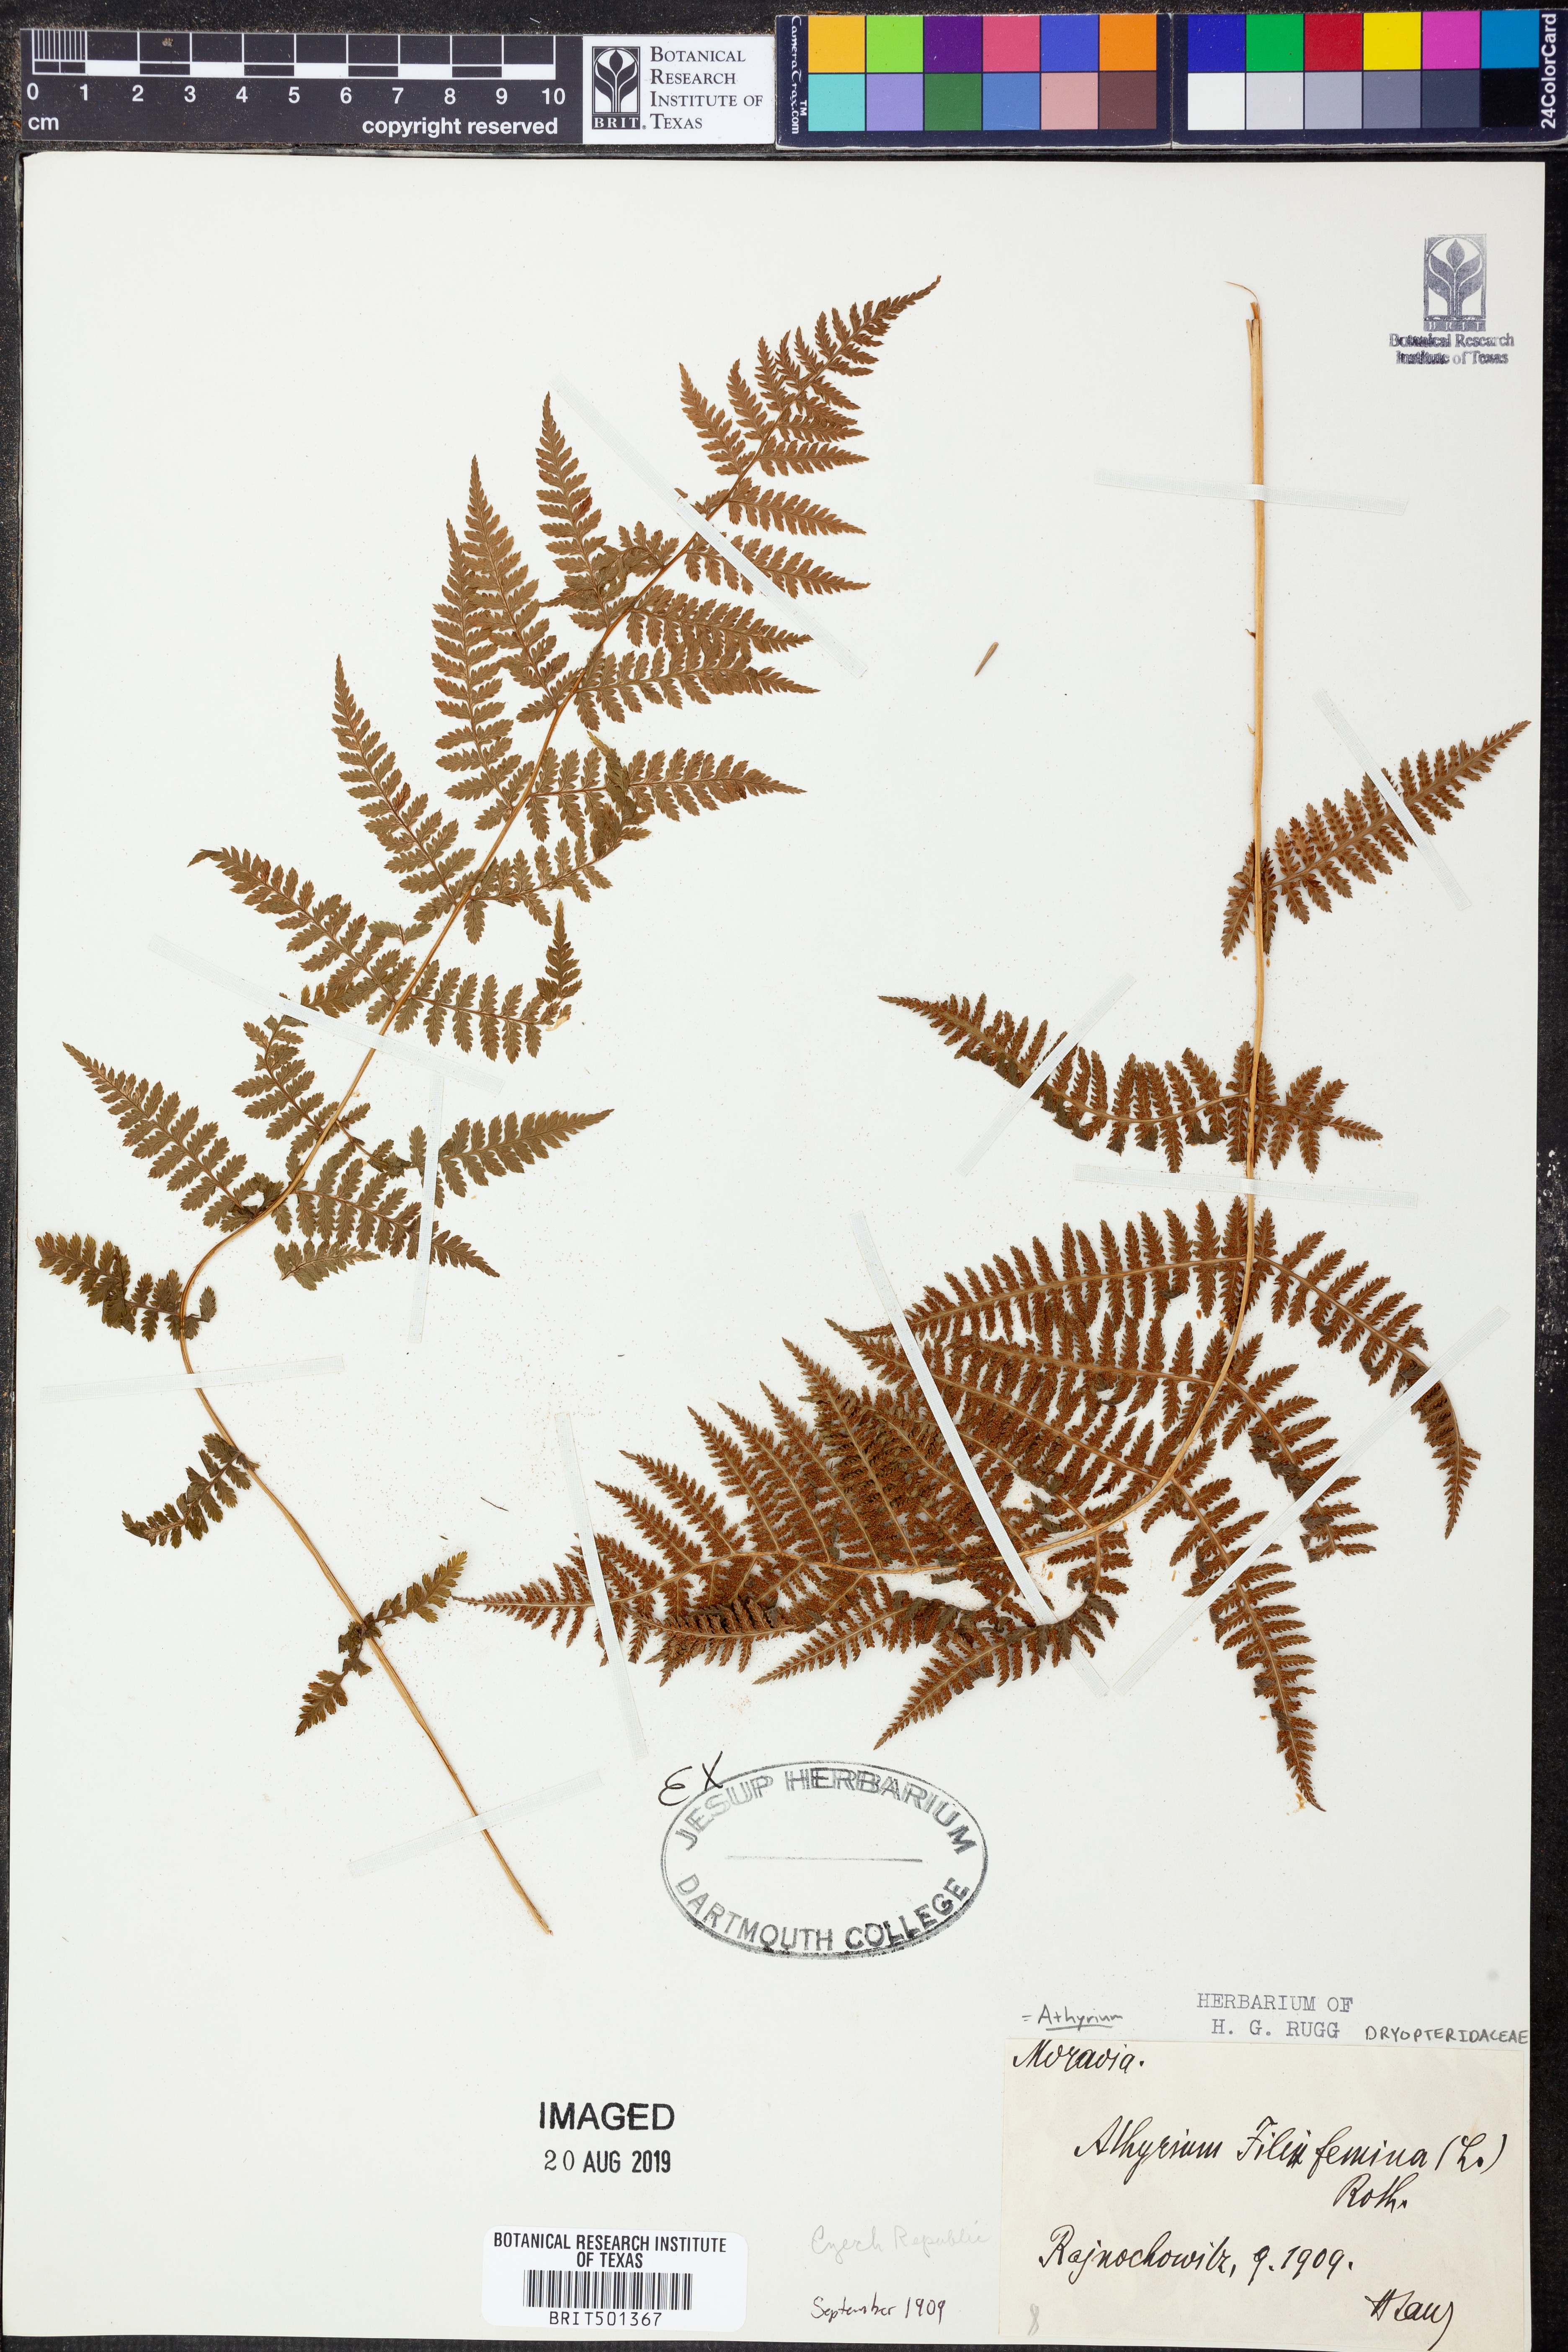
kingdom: Plantae
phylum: Tracheophyta
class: Polypodiopsida
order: Polypodiales
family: Athyriaceae
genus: Athyrium
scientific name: Athyrium filix-femina
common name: Lady fern
